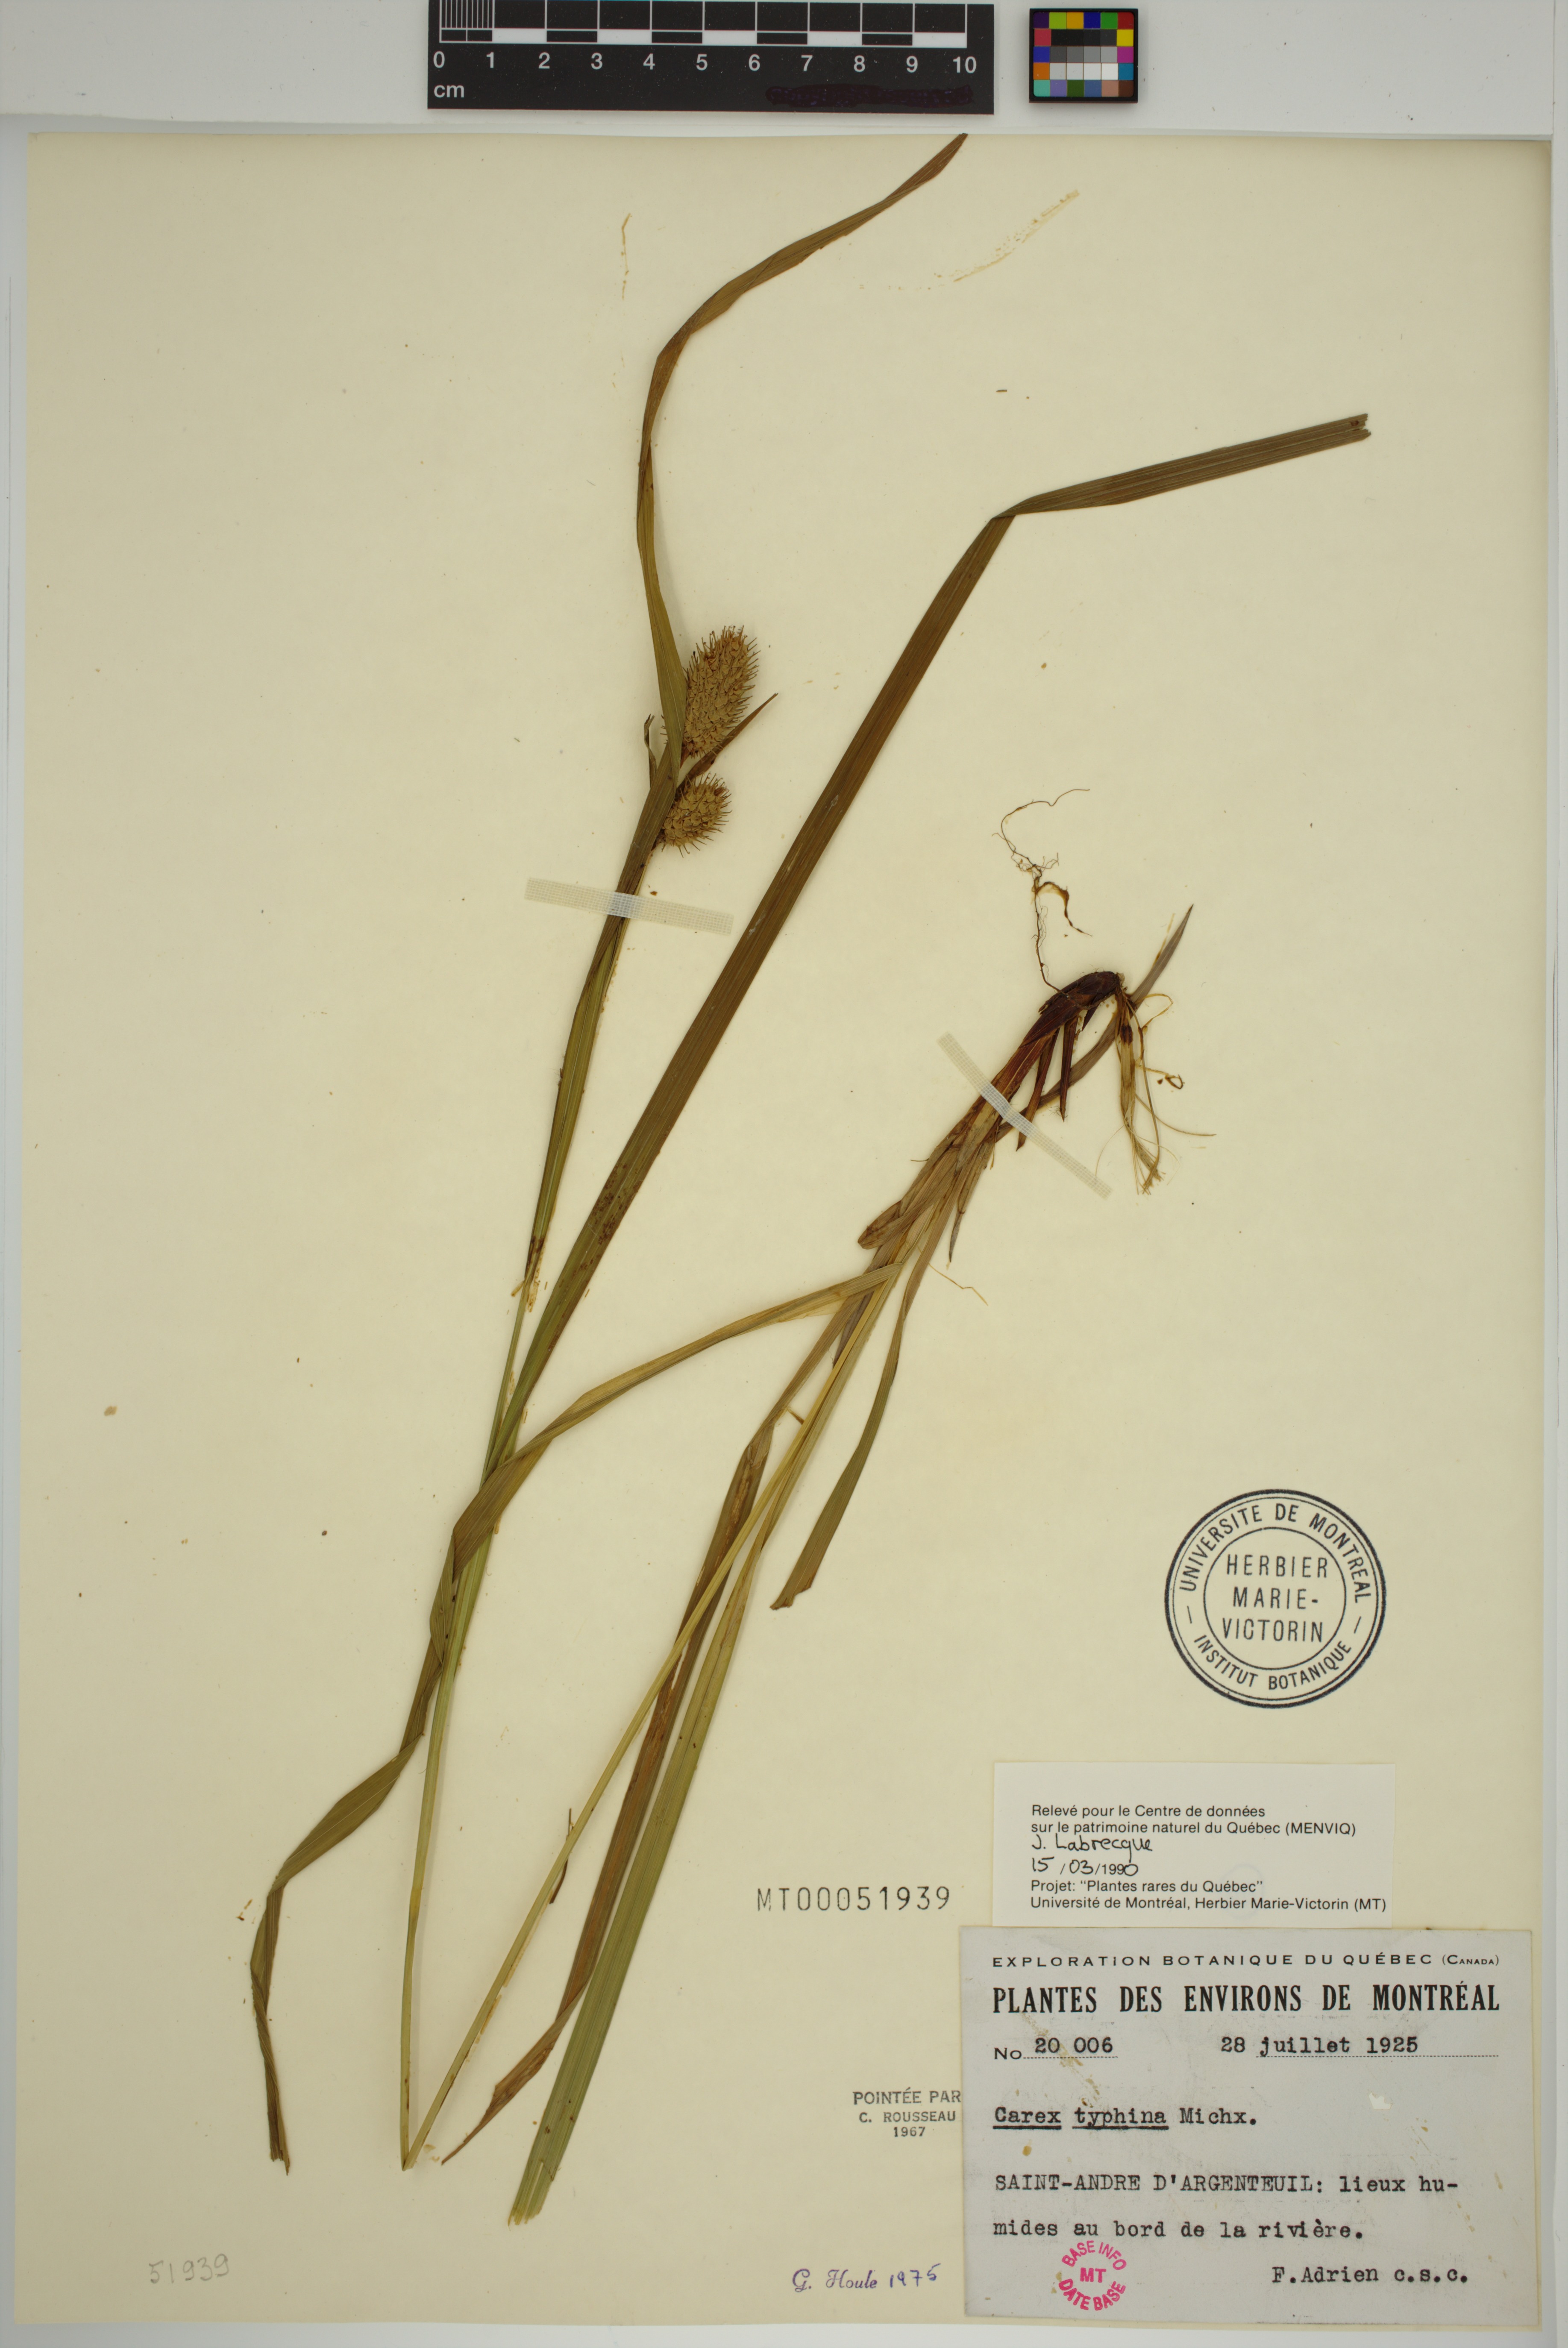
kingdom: Plantae
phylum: Tracheophyta
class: Liliopsida
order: Poales
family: Cyperaceae
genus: Carex
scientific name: Carex typhina
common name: Cattail sedge
